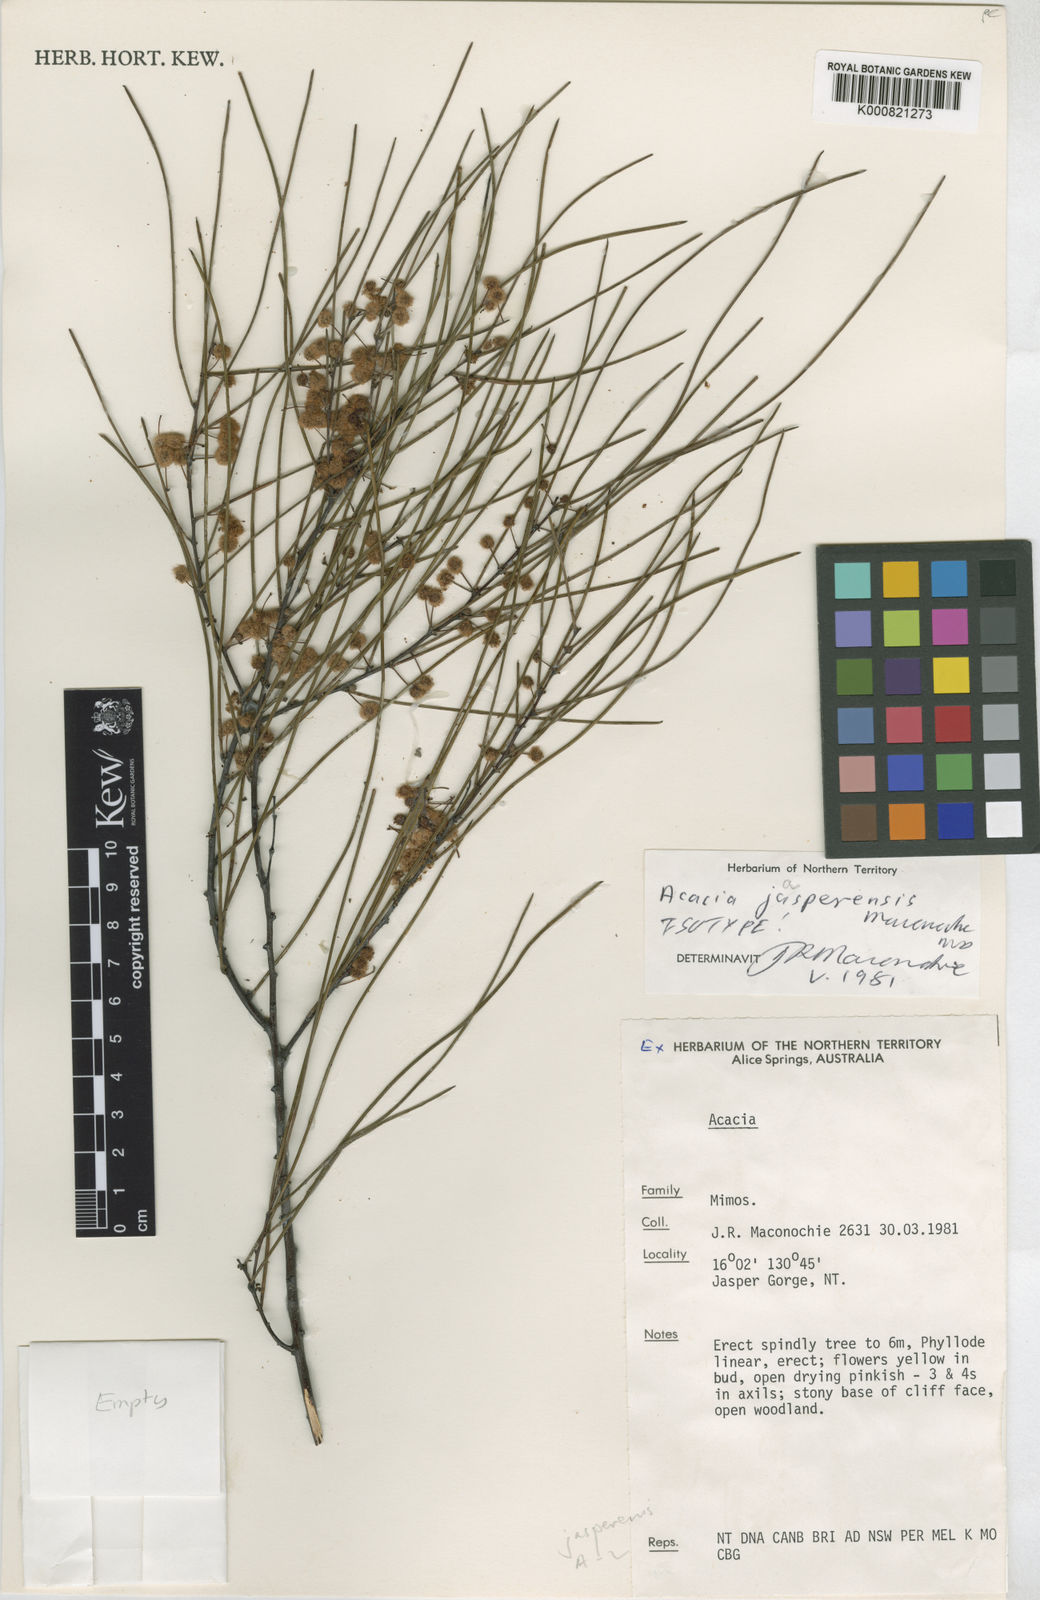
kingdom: Plantae
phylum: Tracheophyta
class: Magnoliopsida
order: Fabales
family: Fabaceae
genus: Acacia
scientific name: Acacia jasperensis
